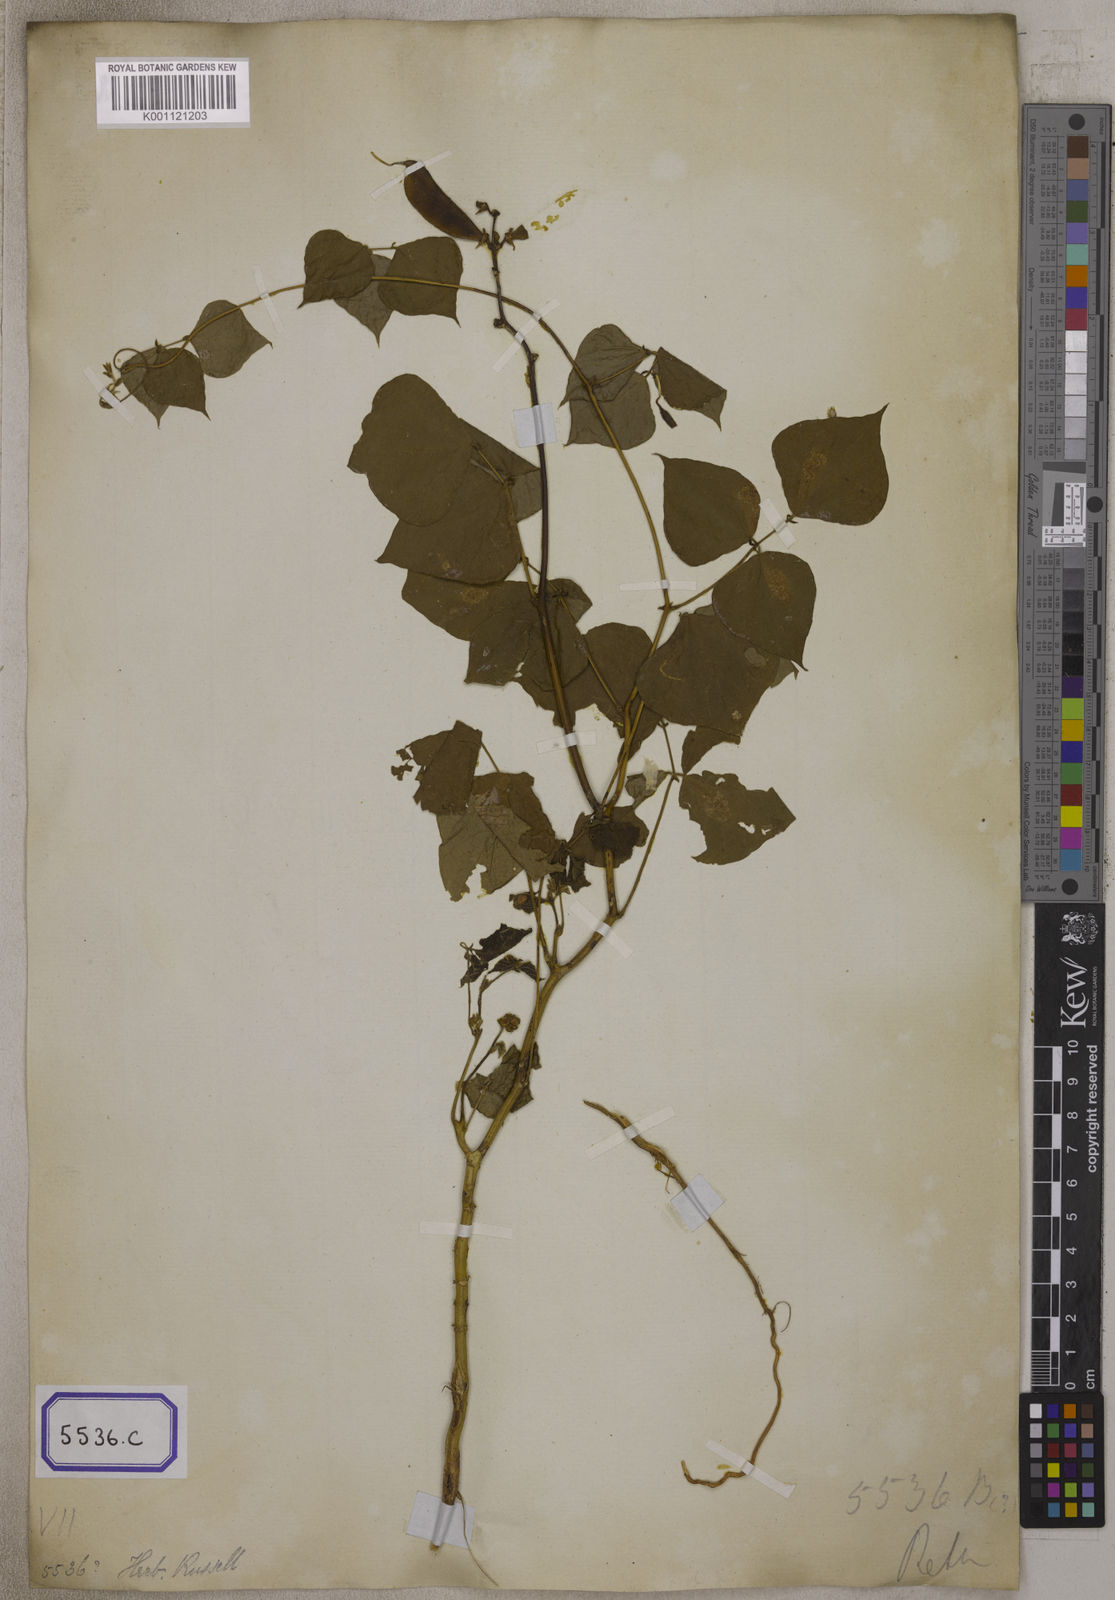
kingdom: Plantae
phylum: Tracheophyta
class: Magnoliopsida
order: Fabales
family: Fabaceae
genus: Lablab
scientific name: Lablab purpureus
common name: Lablab-bean
